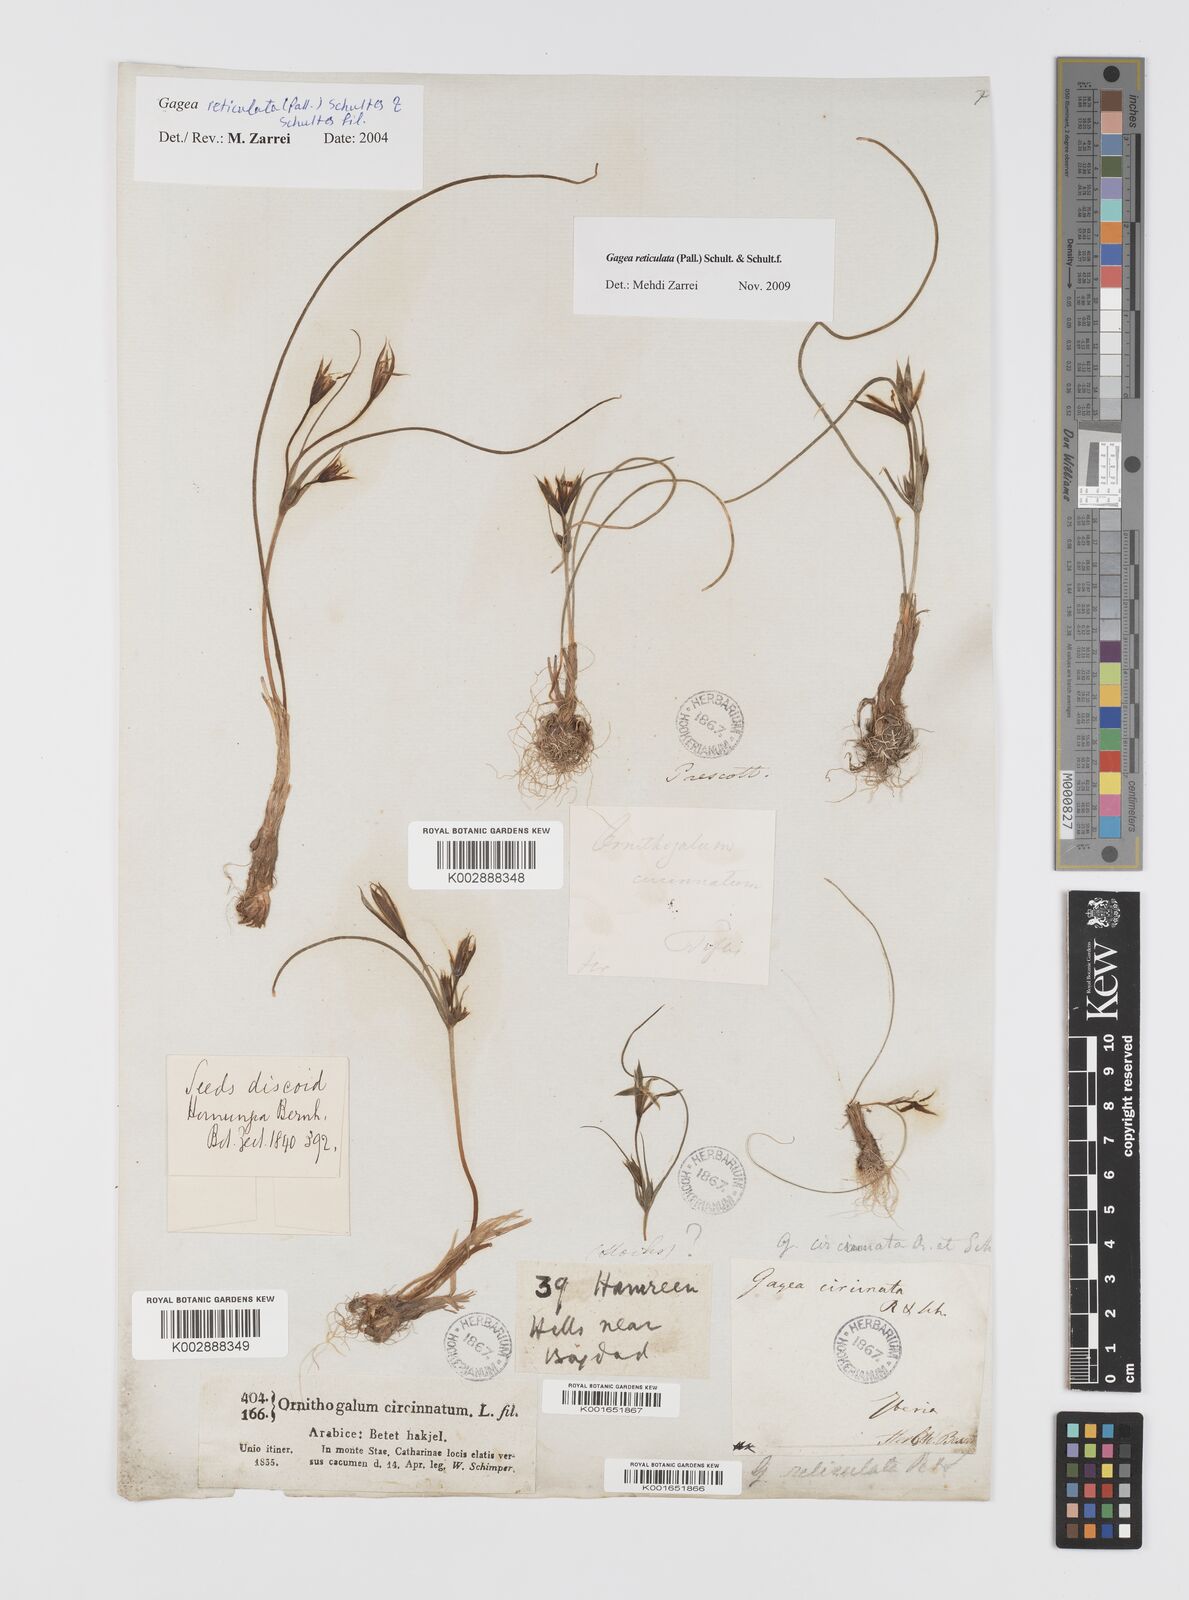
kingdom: Plantae
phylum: Tracheophyta
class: Liliopsida
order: Liliales
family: Liliaceae
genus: Gagea
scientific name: Gagea reticulata
